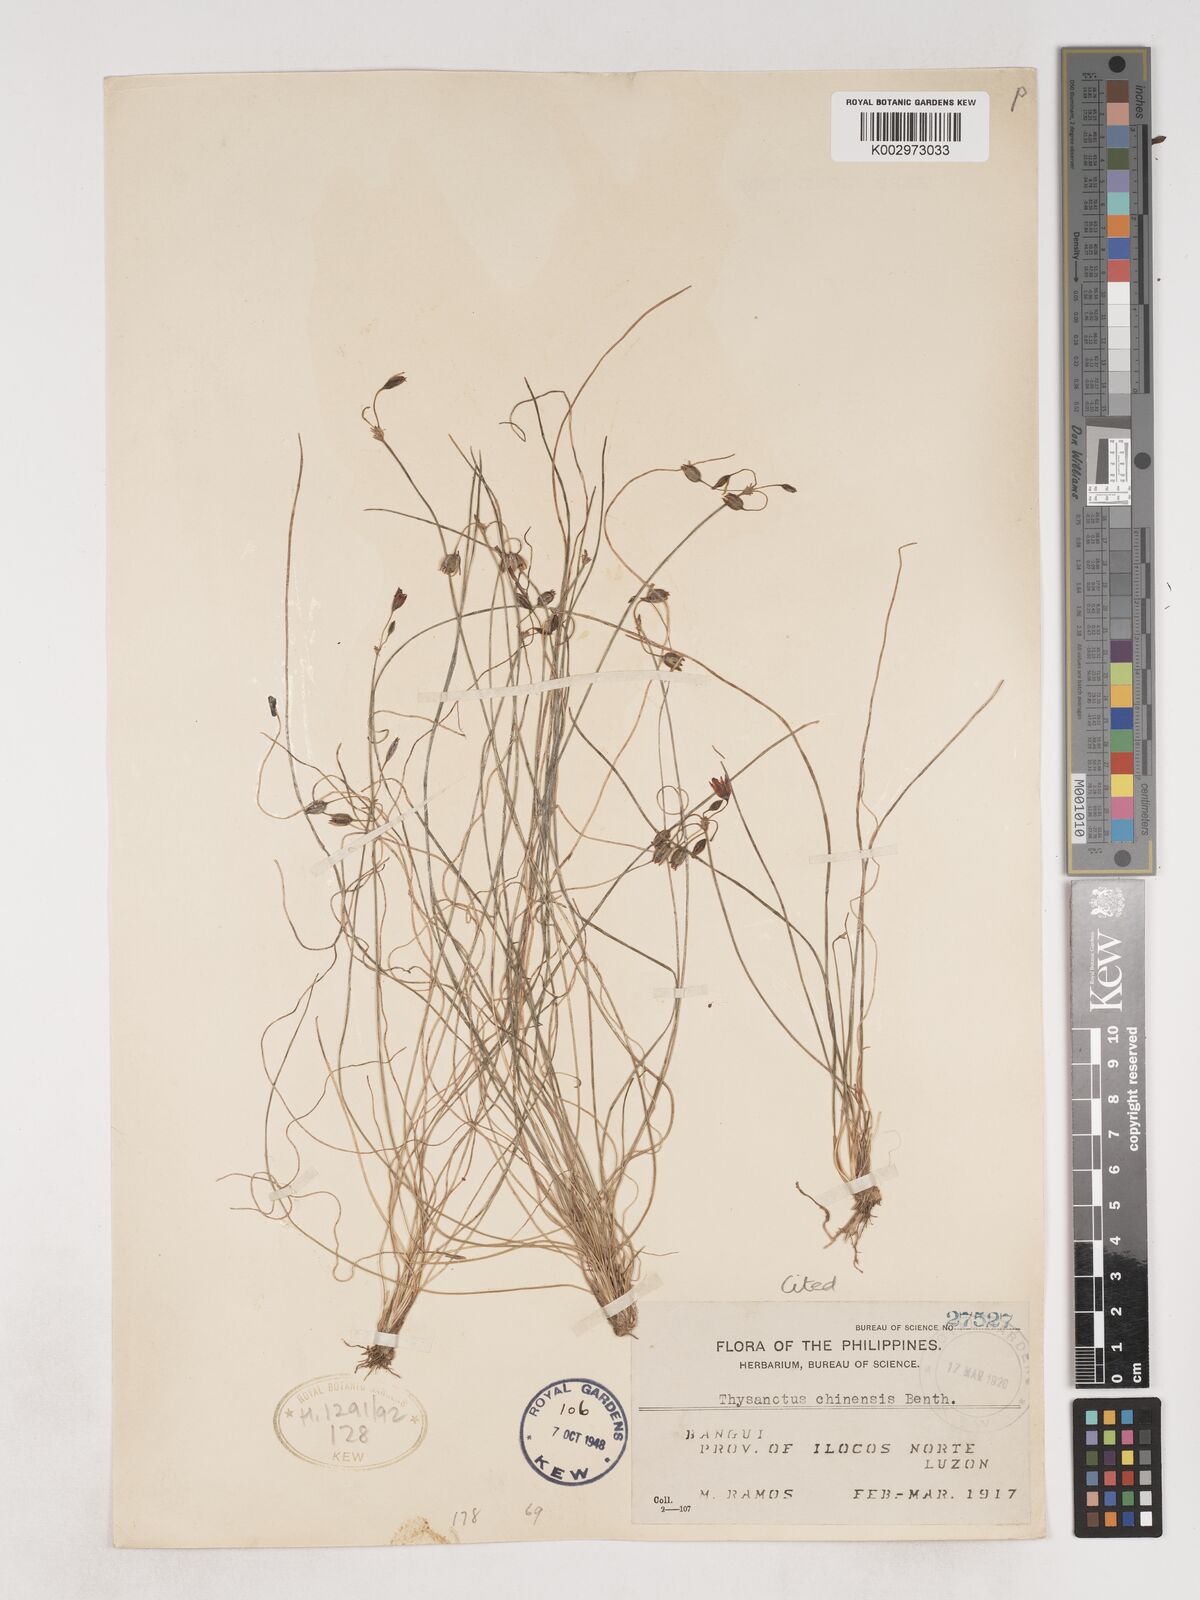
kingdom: Plantae
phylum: Tracheophyta
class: Liliopsida
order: Asparagales
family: Asparagaceae
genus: Thysanotus
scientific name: Thysanotus chinensis
